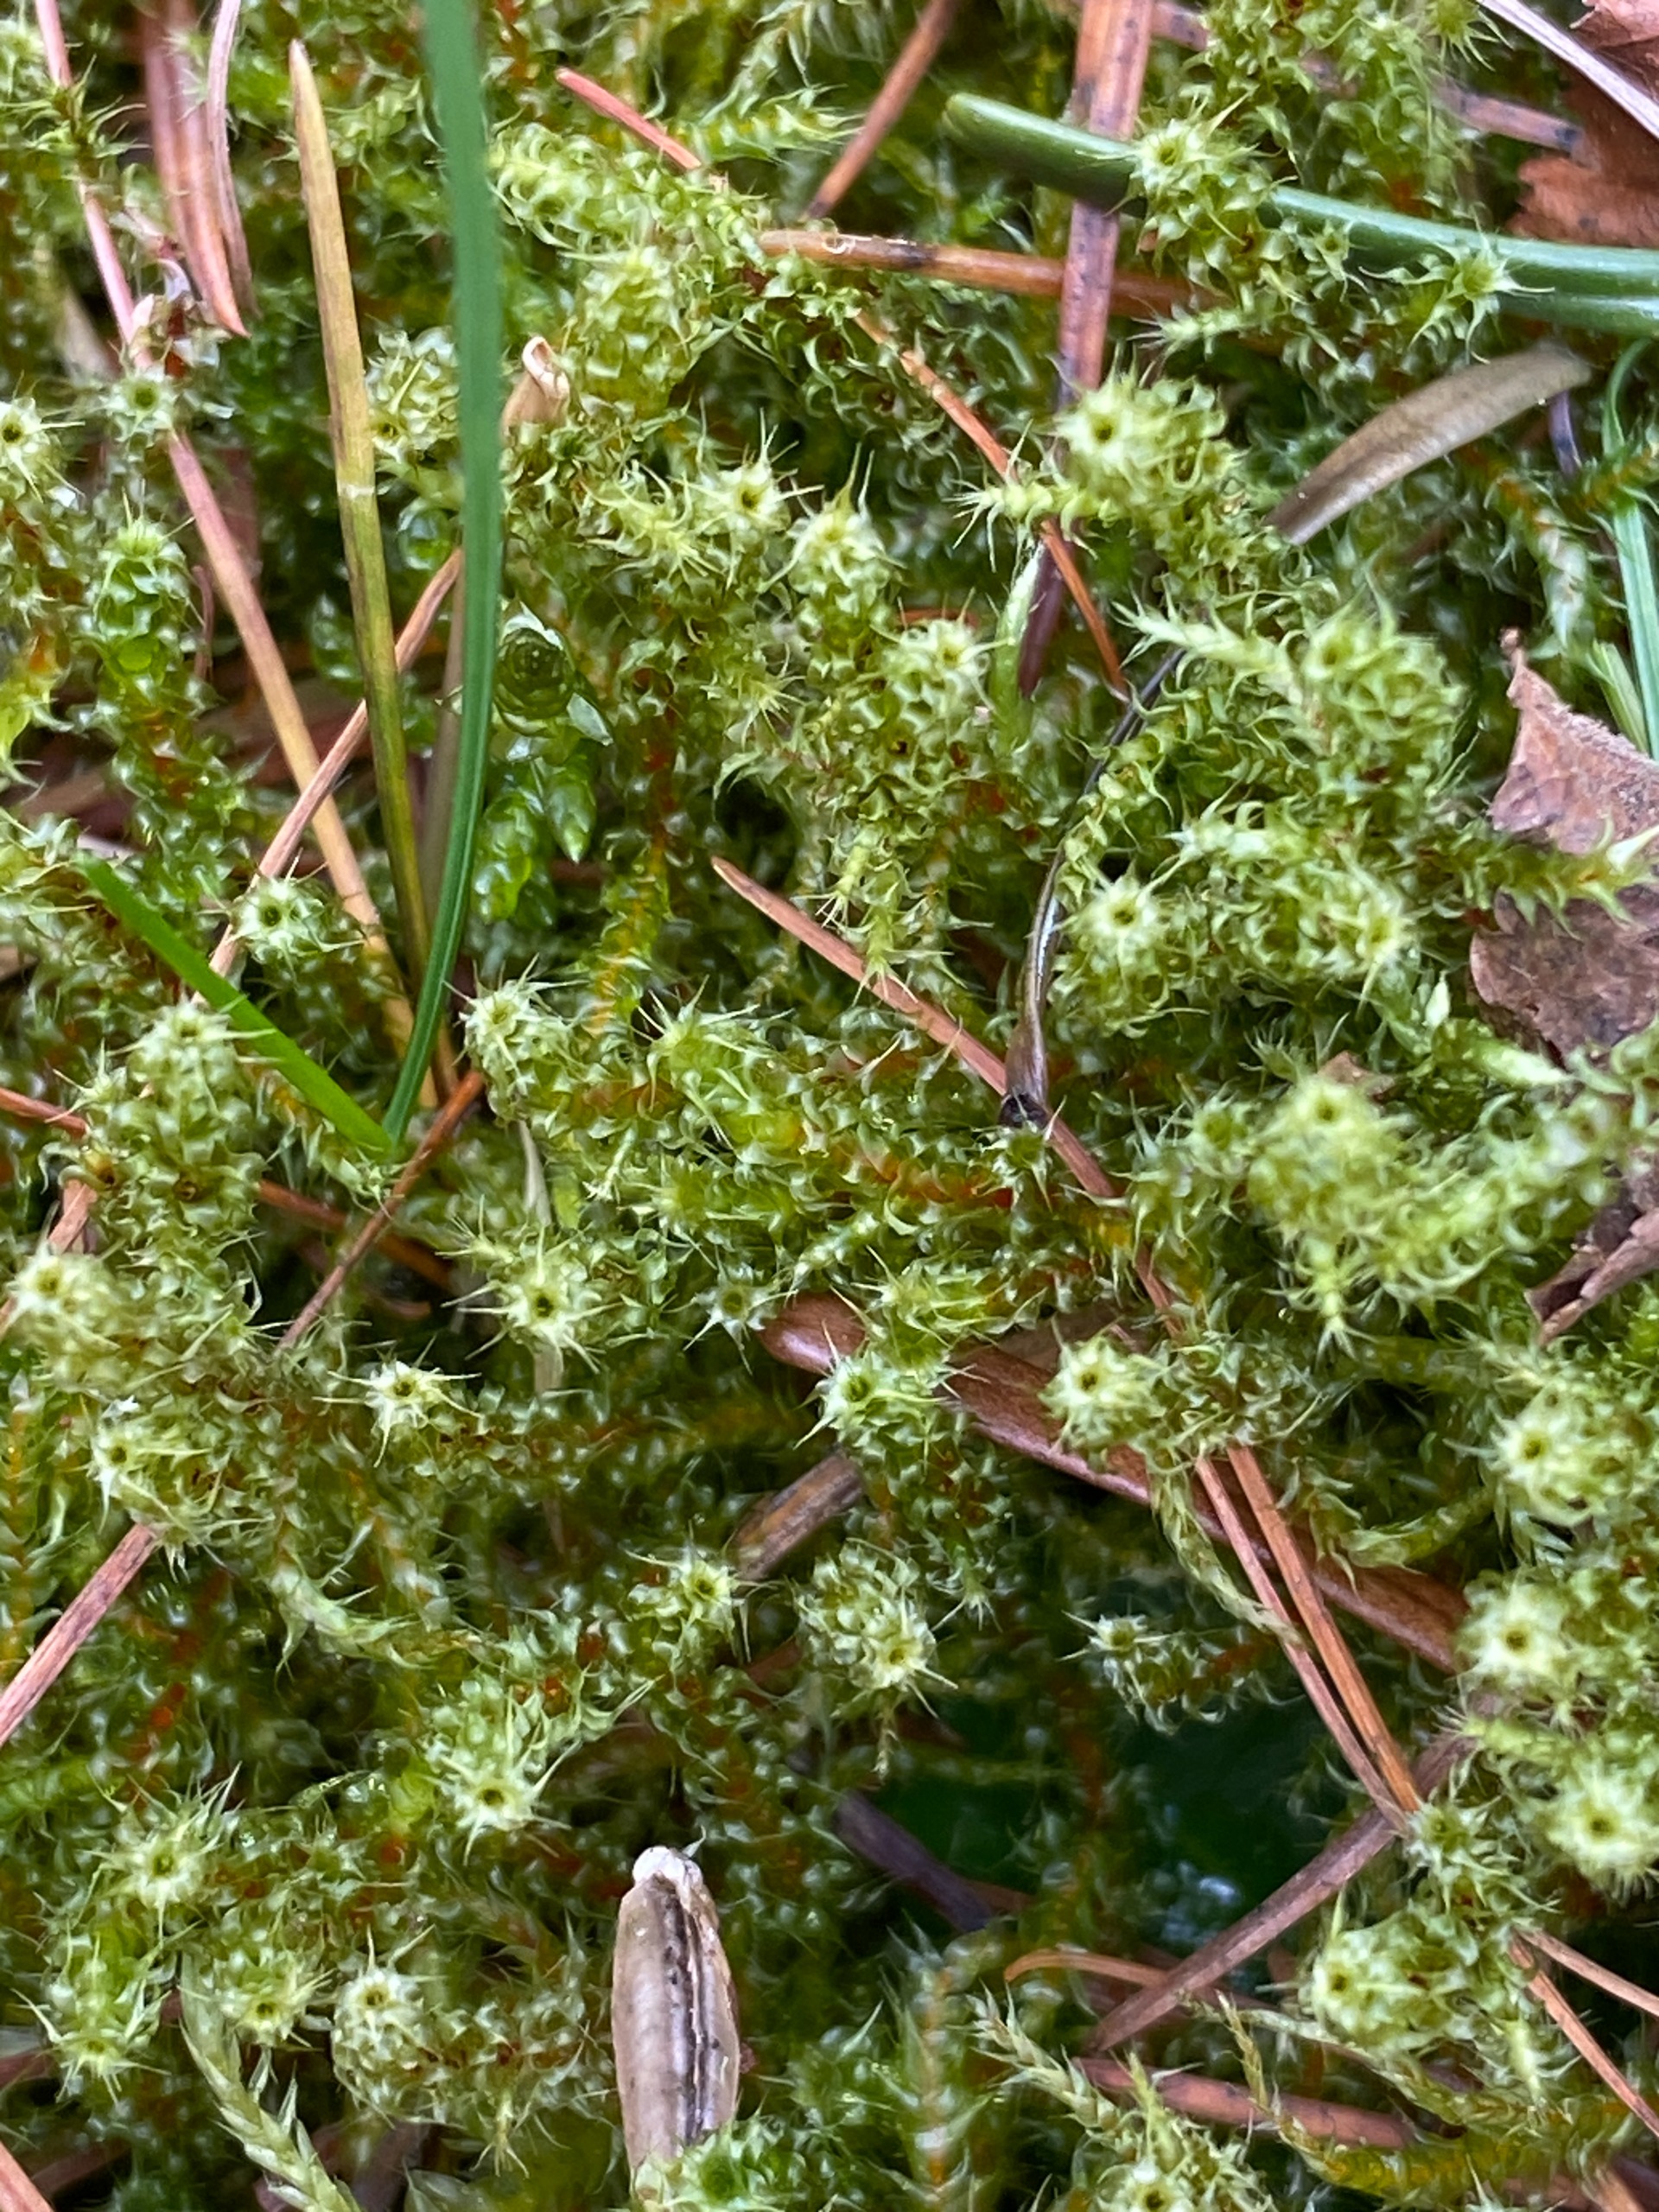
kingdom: Plantae
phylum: Bryophyta
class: Bryopsida
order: Hypnales
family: Hylocomiaceae
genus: Rhytidiadelphus
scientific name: Rhytidiadelphus squarrosus
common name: Plæne-kransemos
